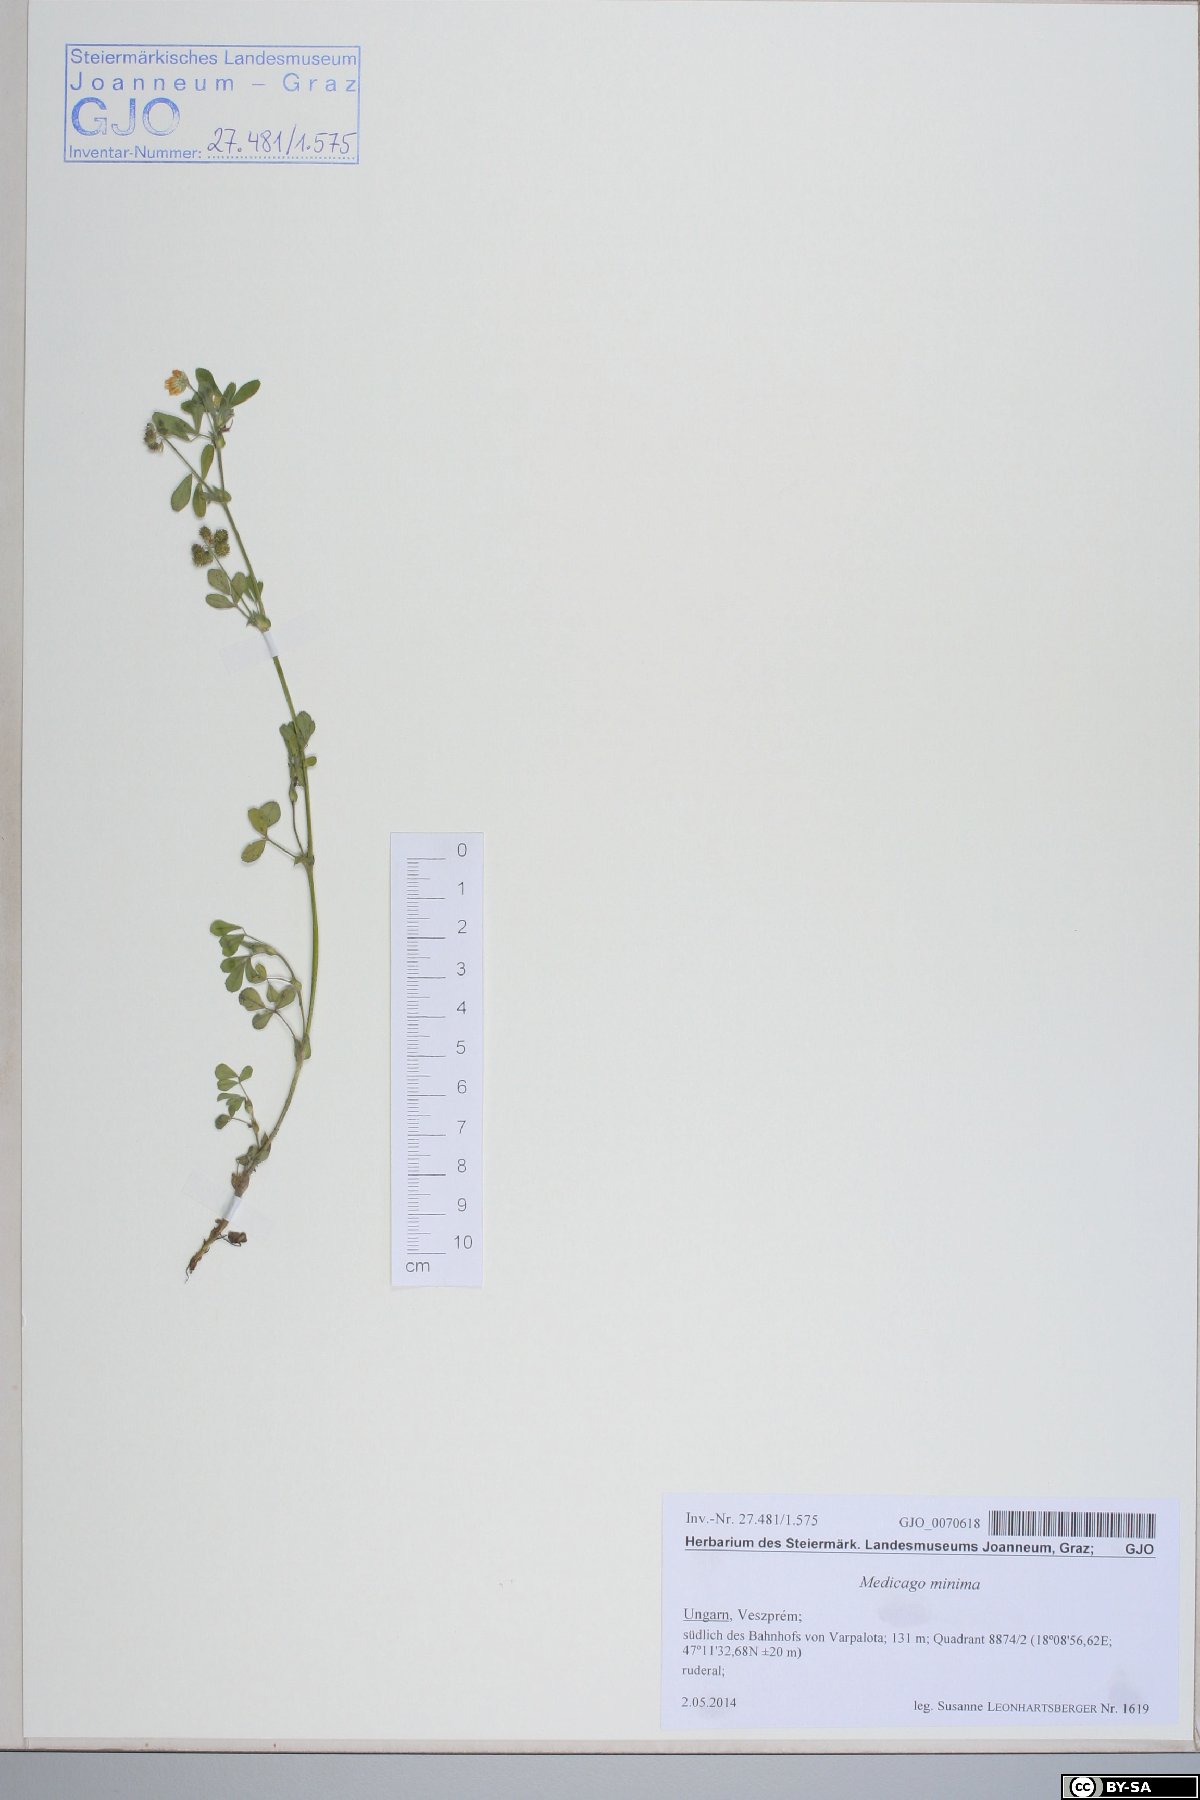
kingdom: Plantae
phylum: Tracheophyta
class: Magnoliopsida
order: Fabales
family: Fabaceae
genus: Medicago
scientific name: Medicago minima
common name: Little bur-clover
